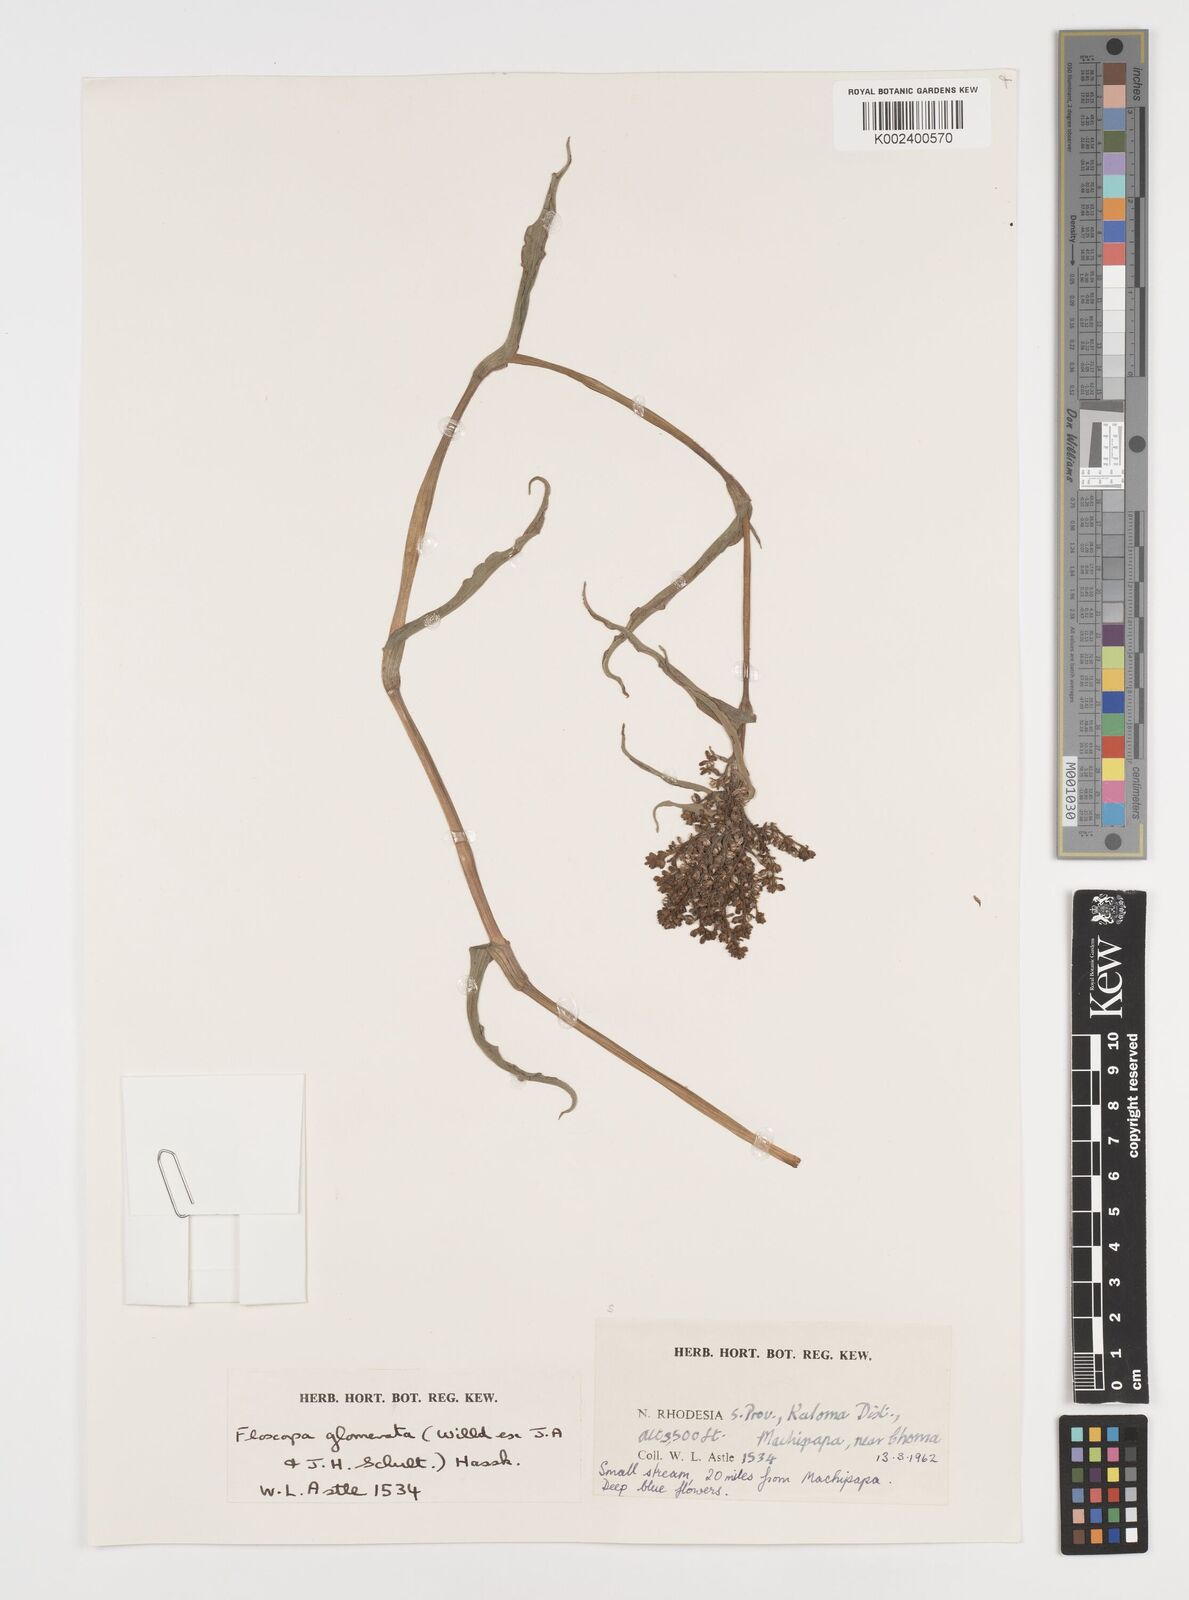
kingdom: Plantae
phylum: Tracheophyta
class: Liliopsida
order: Commelinales
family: Commelinaceae
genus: Floscopa
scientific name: Floscopa glomerata
